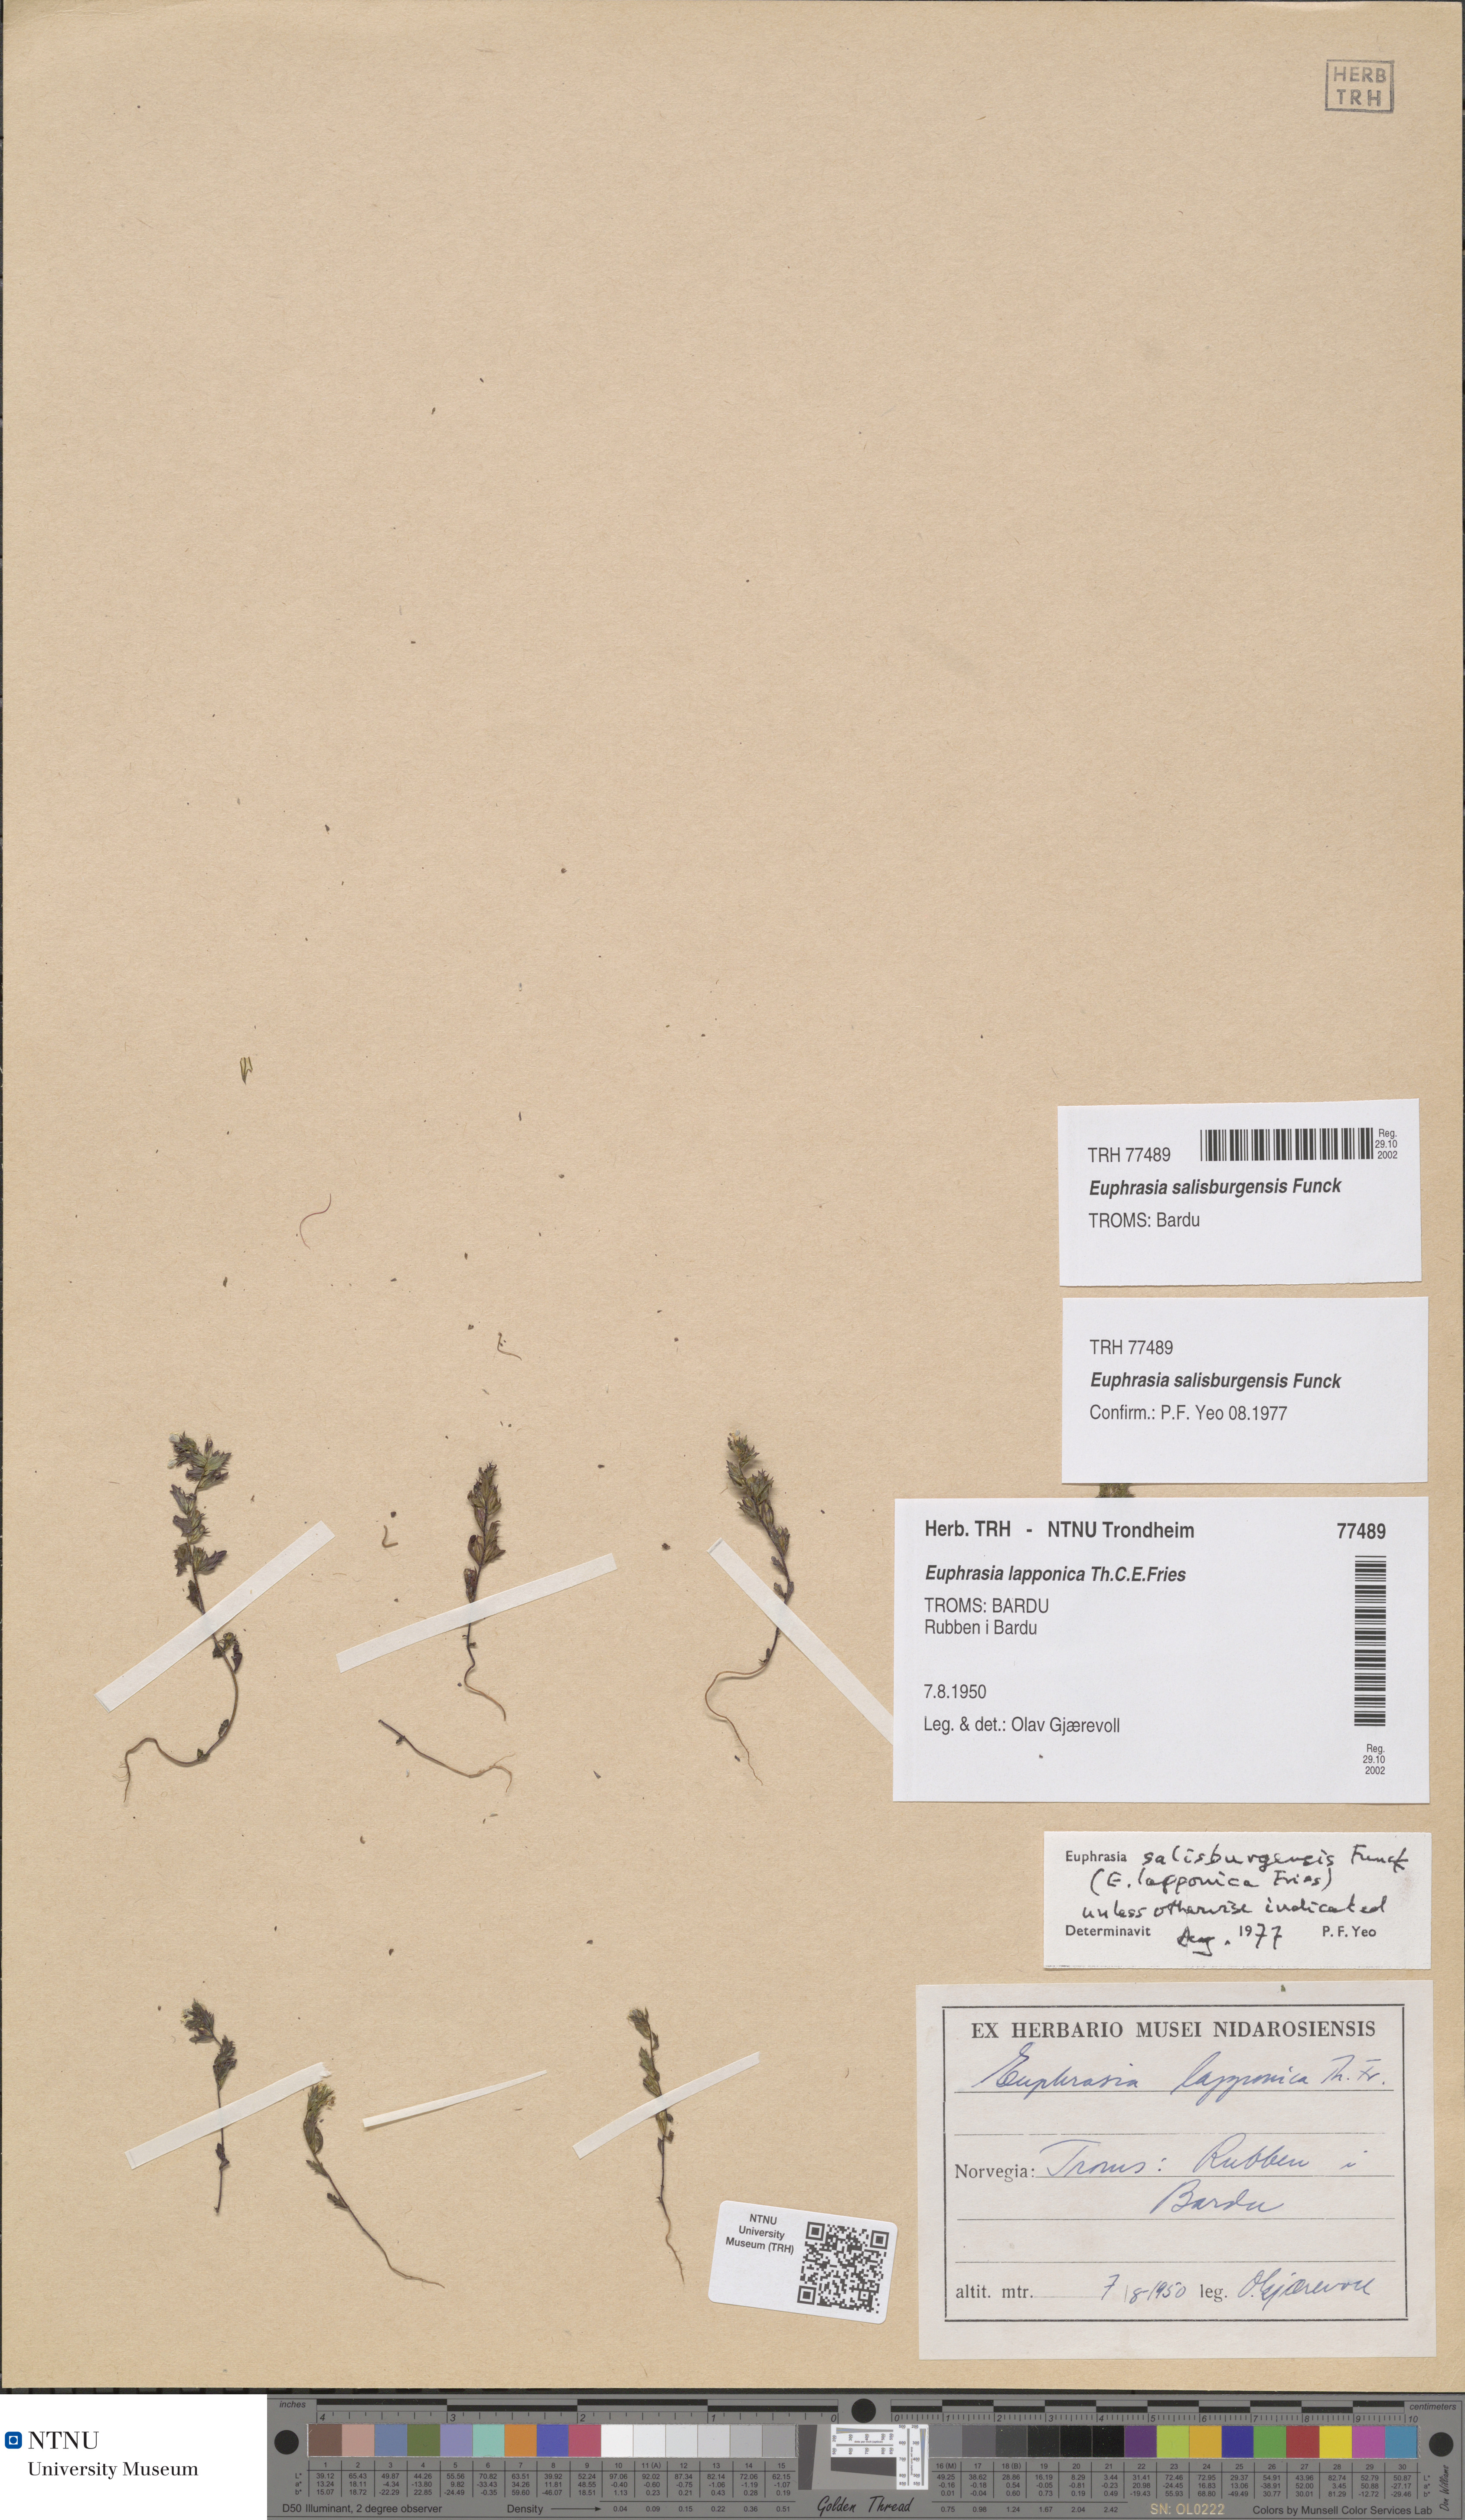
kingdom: Plantae
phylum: Tracheophyta
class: Magnoliopsida
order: Lamiales
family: Orobanchaceae
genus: Euphrasia
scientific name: Euphrasia salisburgensis
